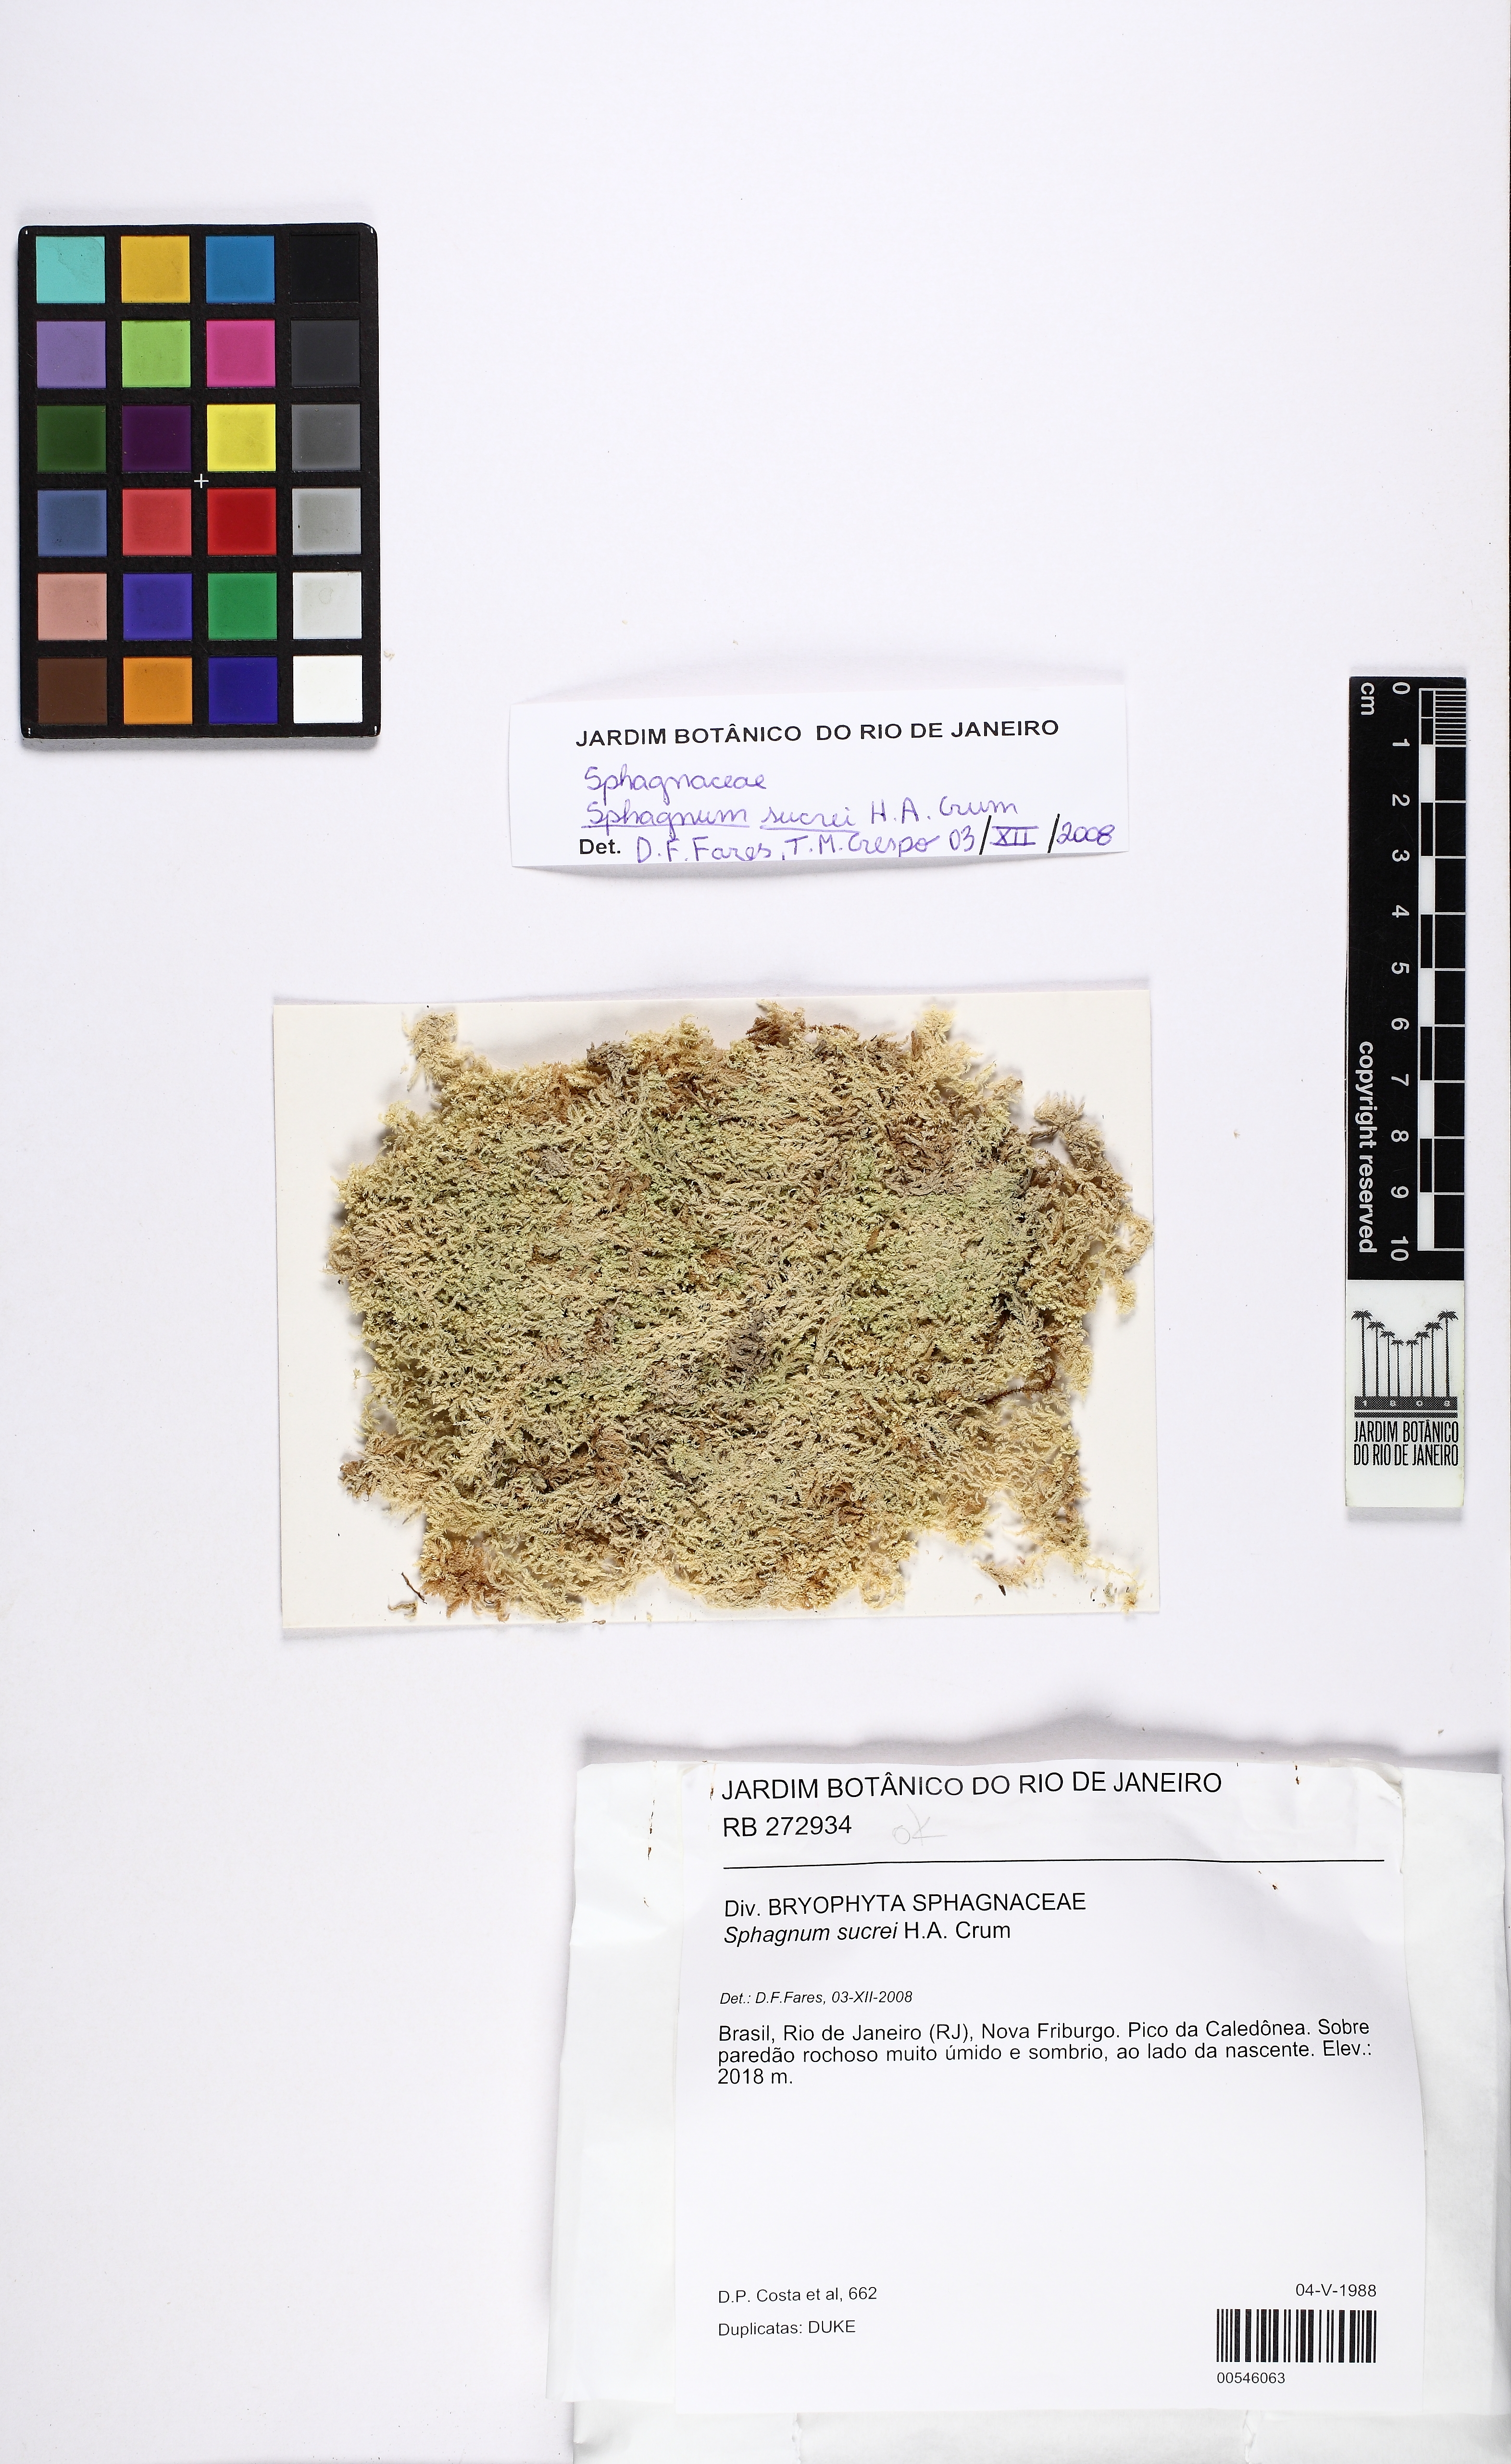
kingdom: Plantae
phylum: Bryophyta
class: Sphagnopsida
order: Sphagnales
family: Sphagnaceae
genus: Sphagnum
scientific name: Sphagnum sucrei
